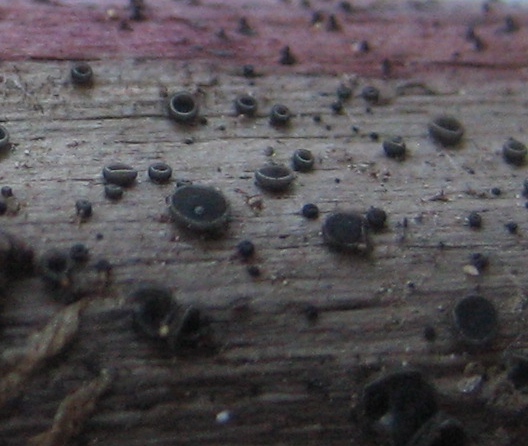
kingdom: Fungi
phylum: Ascomycota
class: Leotiomycetes
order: Helotiales
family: Ploettnerulaceae
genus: Pyrenopeziza
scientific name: Pyrenopeziza urticicola
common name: nælde-kerneskive
